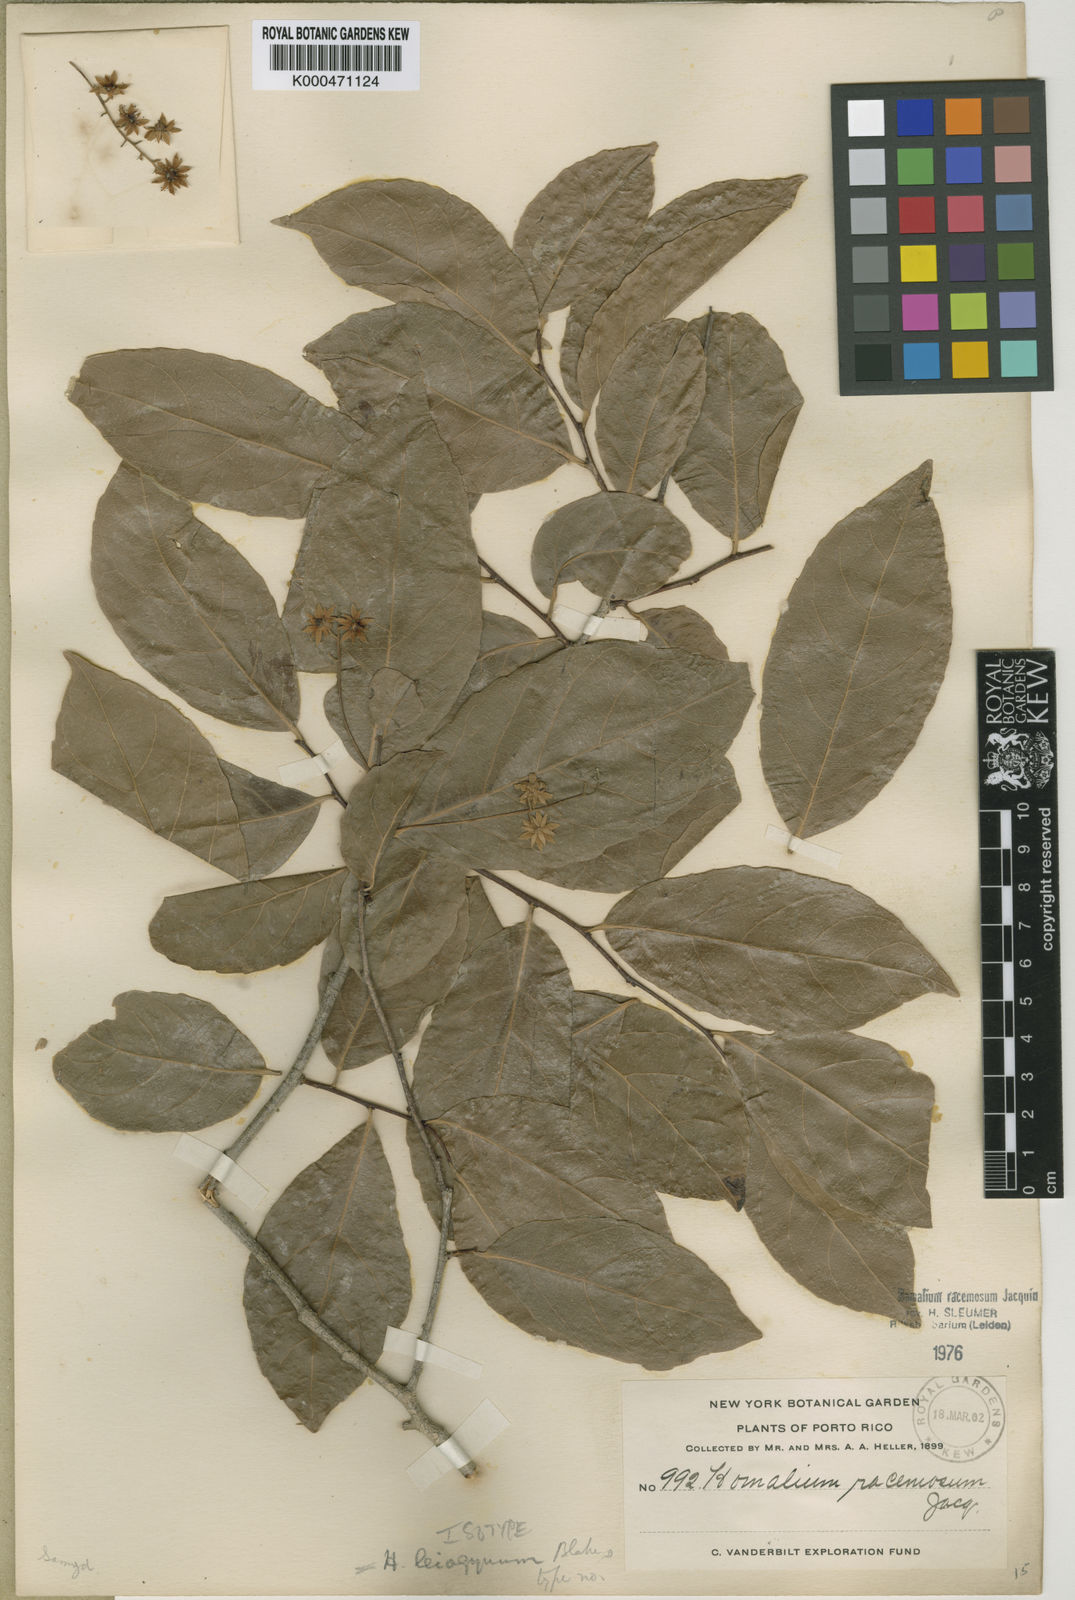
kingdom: Plantae
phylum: Tracheophyta
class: Magnoliopsida
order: Malpighiales
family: Salicaceae
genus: Homalium
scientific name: Homalium racemosum
